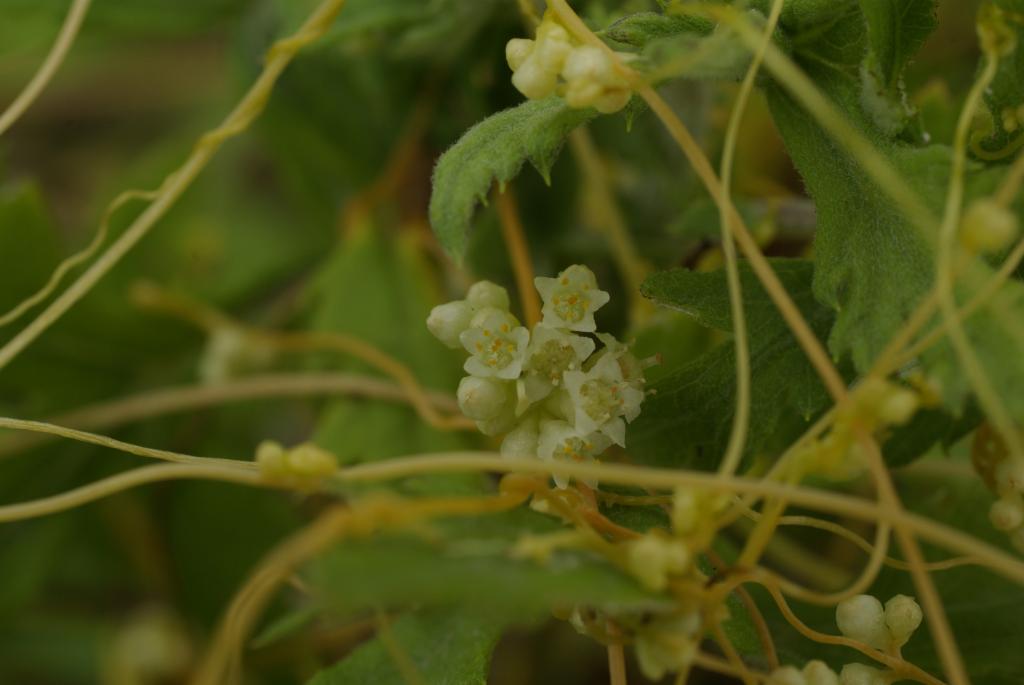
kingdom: Plantae
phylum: Tracheophyta
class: Magnoliopsida
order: Solanales
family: Convolvulaceae
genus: Cuscuta
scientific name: Cuscuta campestris
